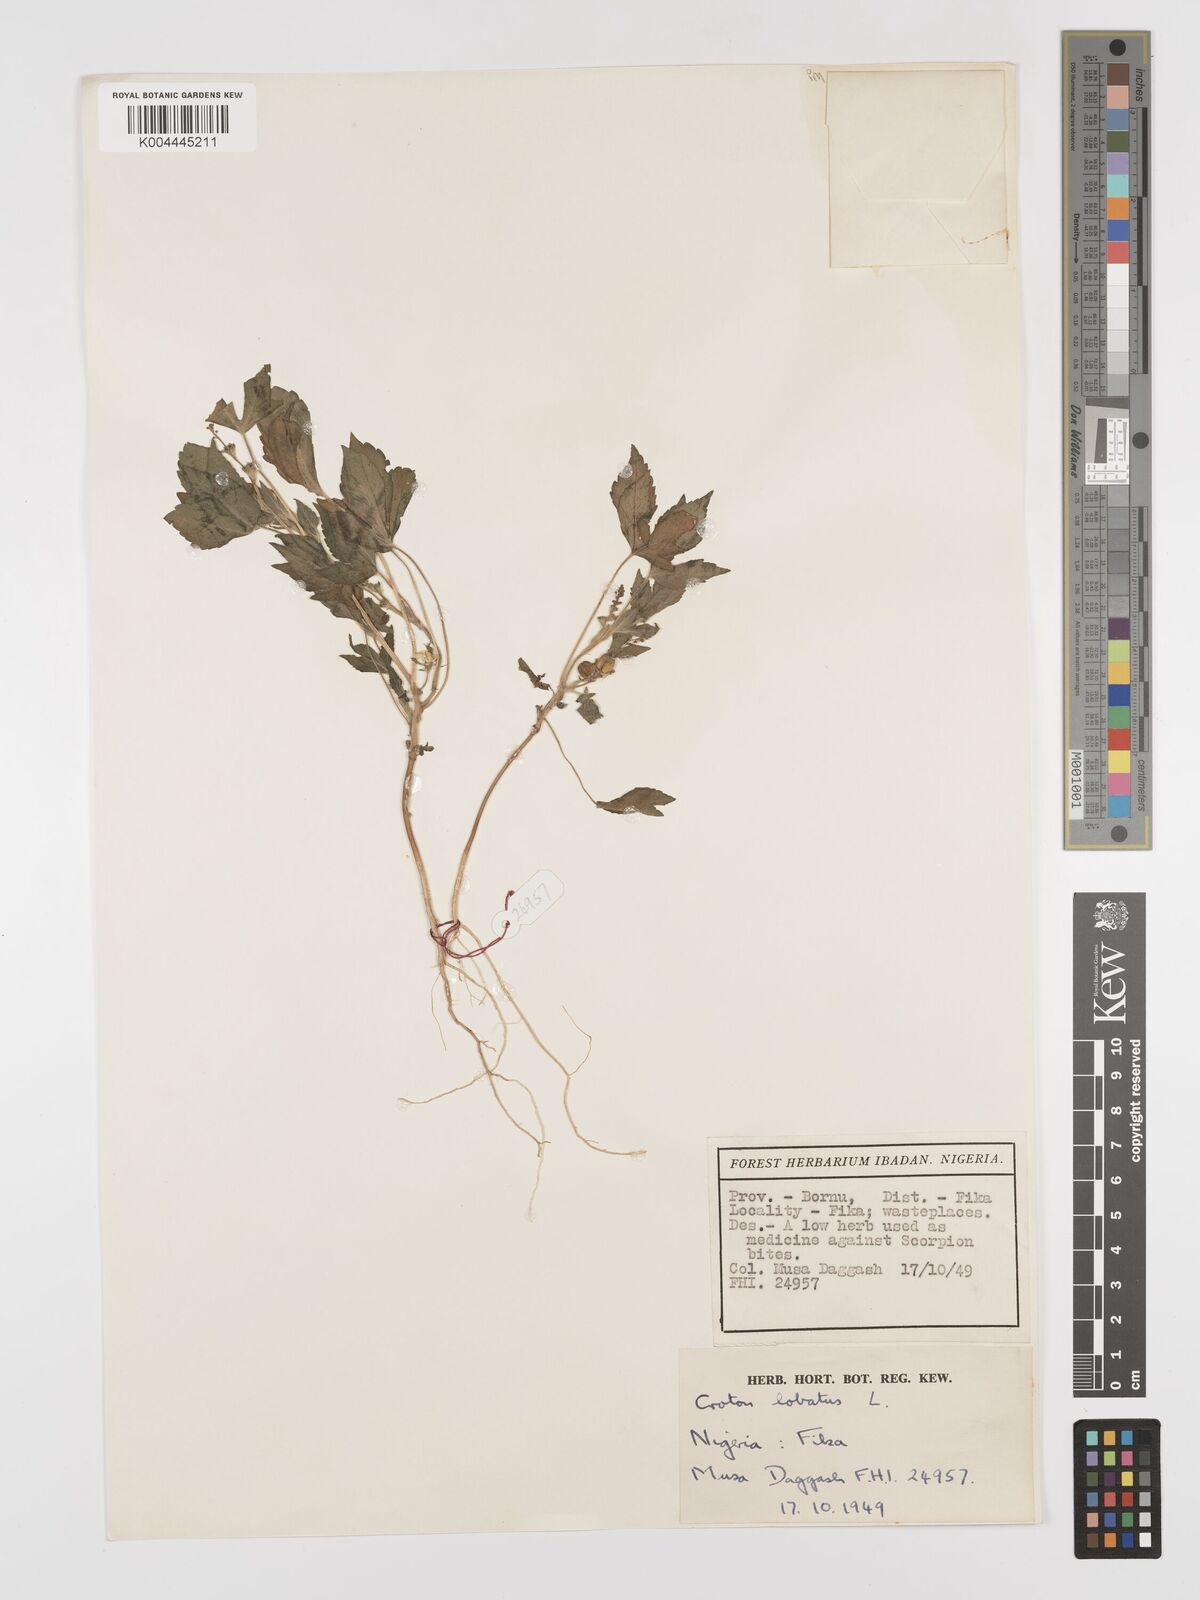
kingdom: Plantae
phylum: Tracheophyta
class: Magnoliopsida
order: Malpighiales
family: Euphorbiaceae
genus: Astraea
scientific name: Astraea lobata
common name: Lobed croton
